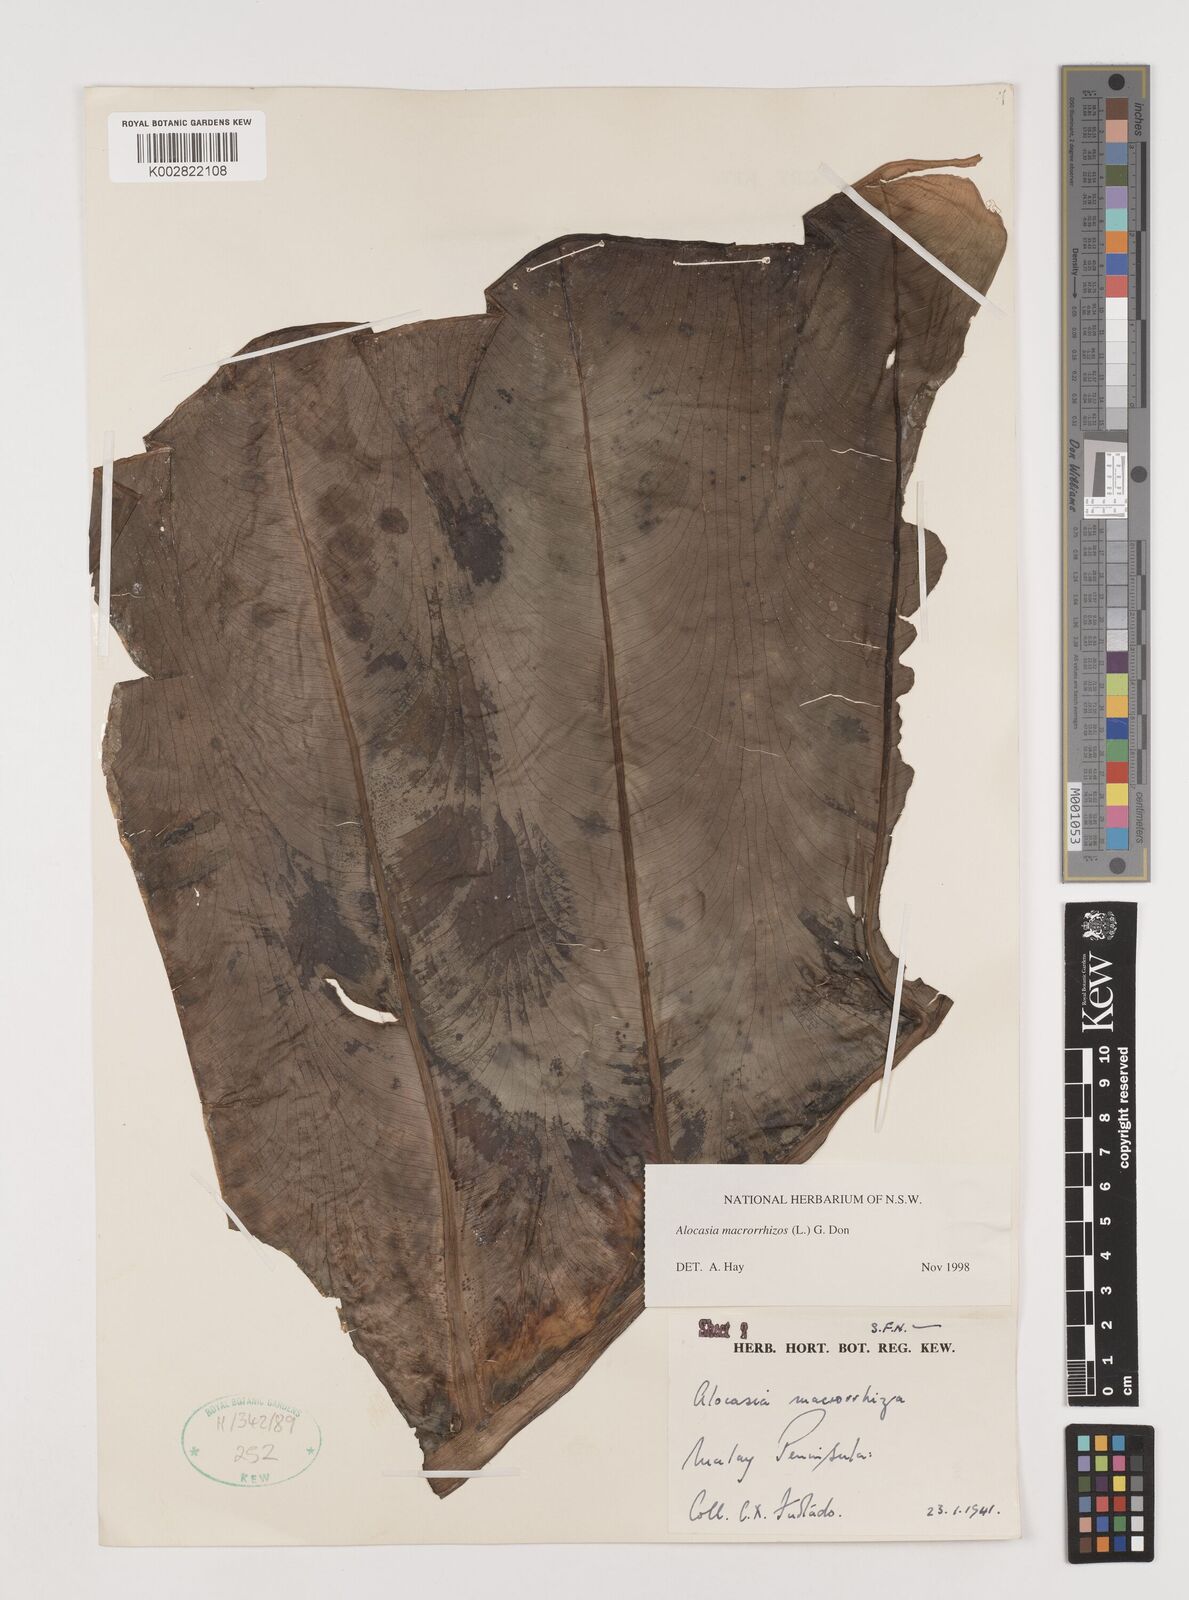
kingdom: Plantae
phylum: Tracheophyta
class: Liliopsida
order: Alismatales
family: Araceae
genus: Alocasia
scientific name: Alocasia macrorrhizos
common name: Giant taro
